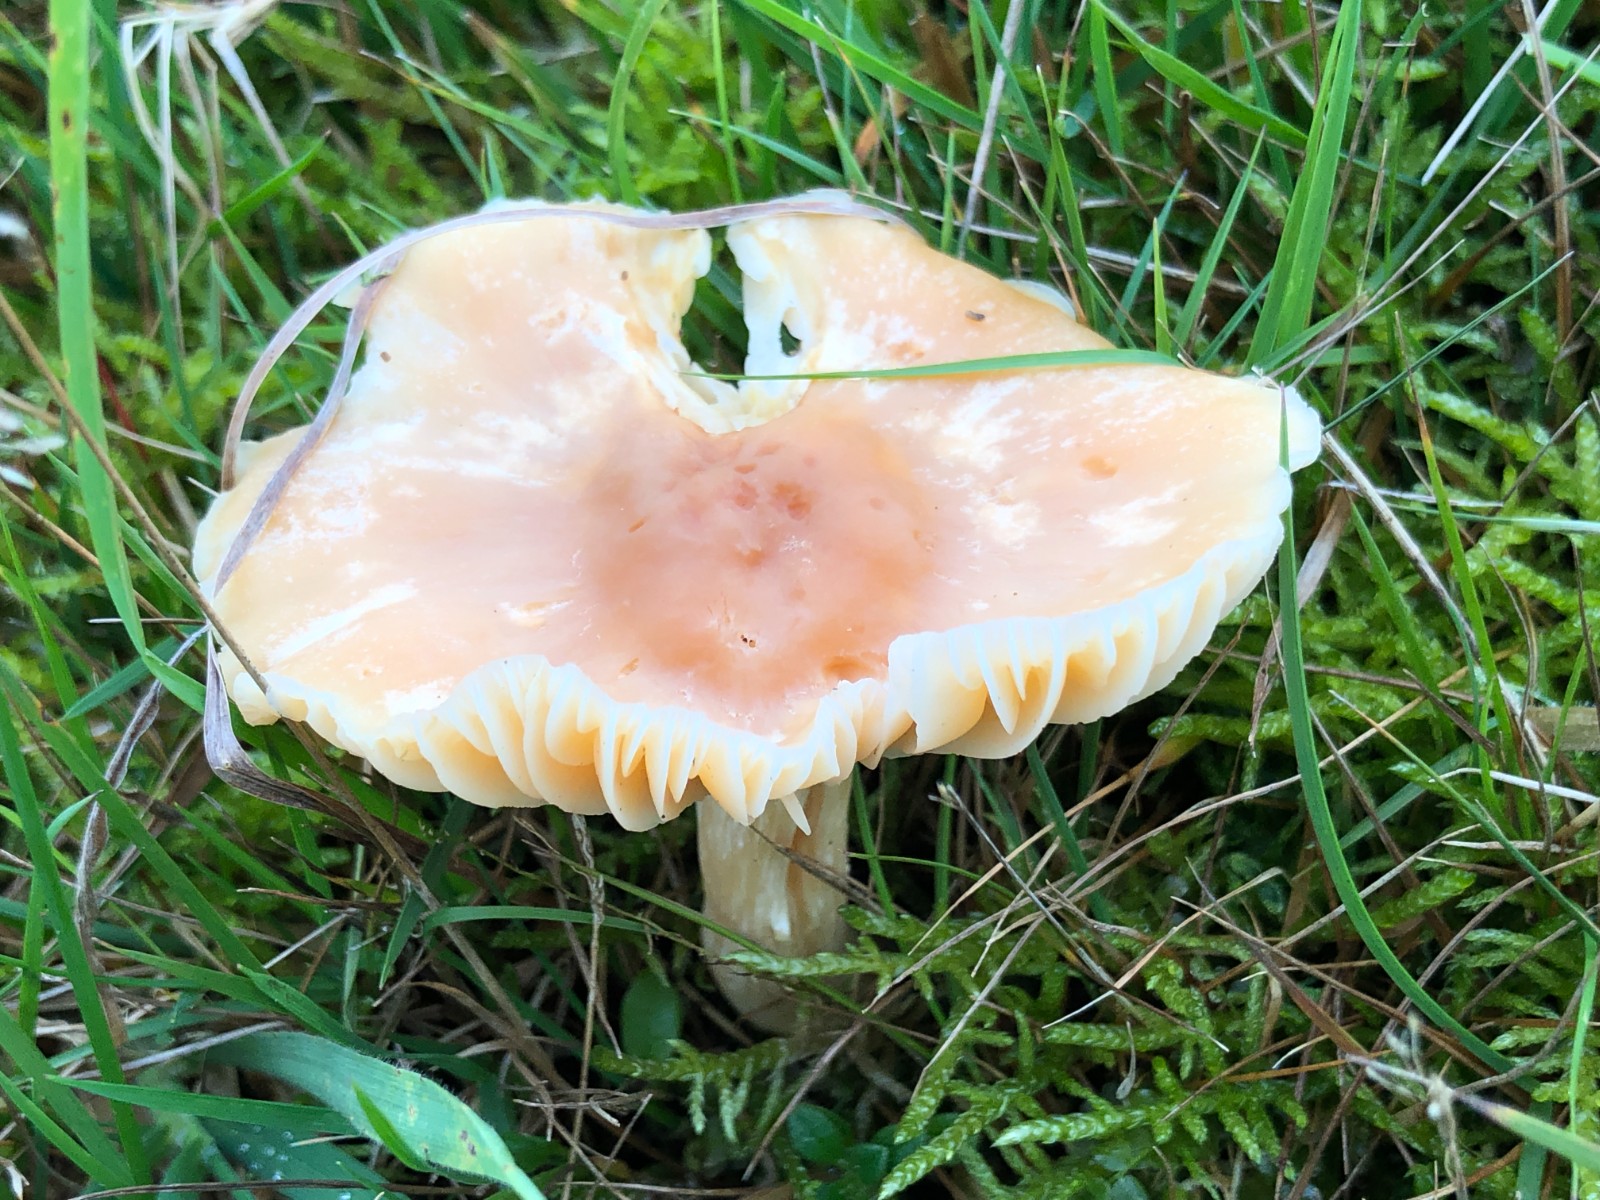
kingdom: Fungi
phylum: Basidiomycota
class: Agaricomycetes
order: Agaricales
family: Hygrophoraceae
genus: Cuphophyllus
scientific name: Cuphophyllus pratensis
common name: eng-vokshat
